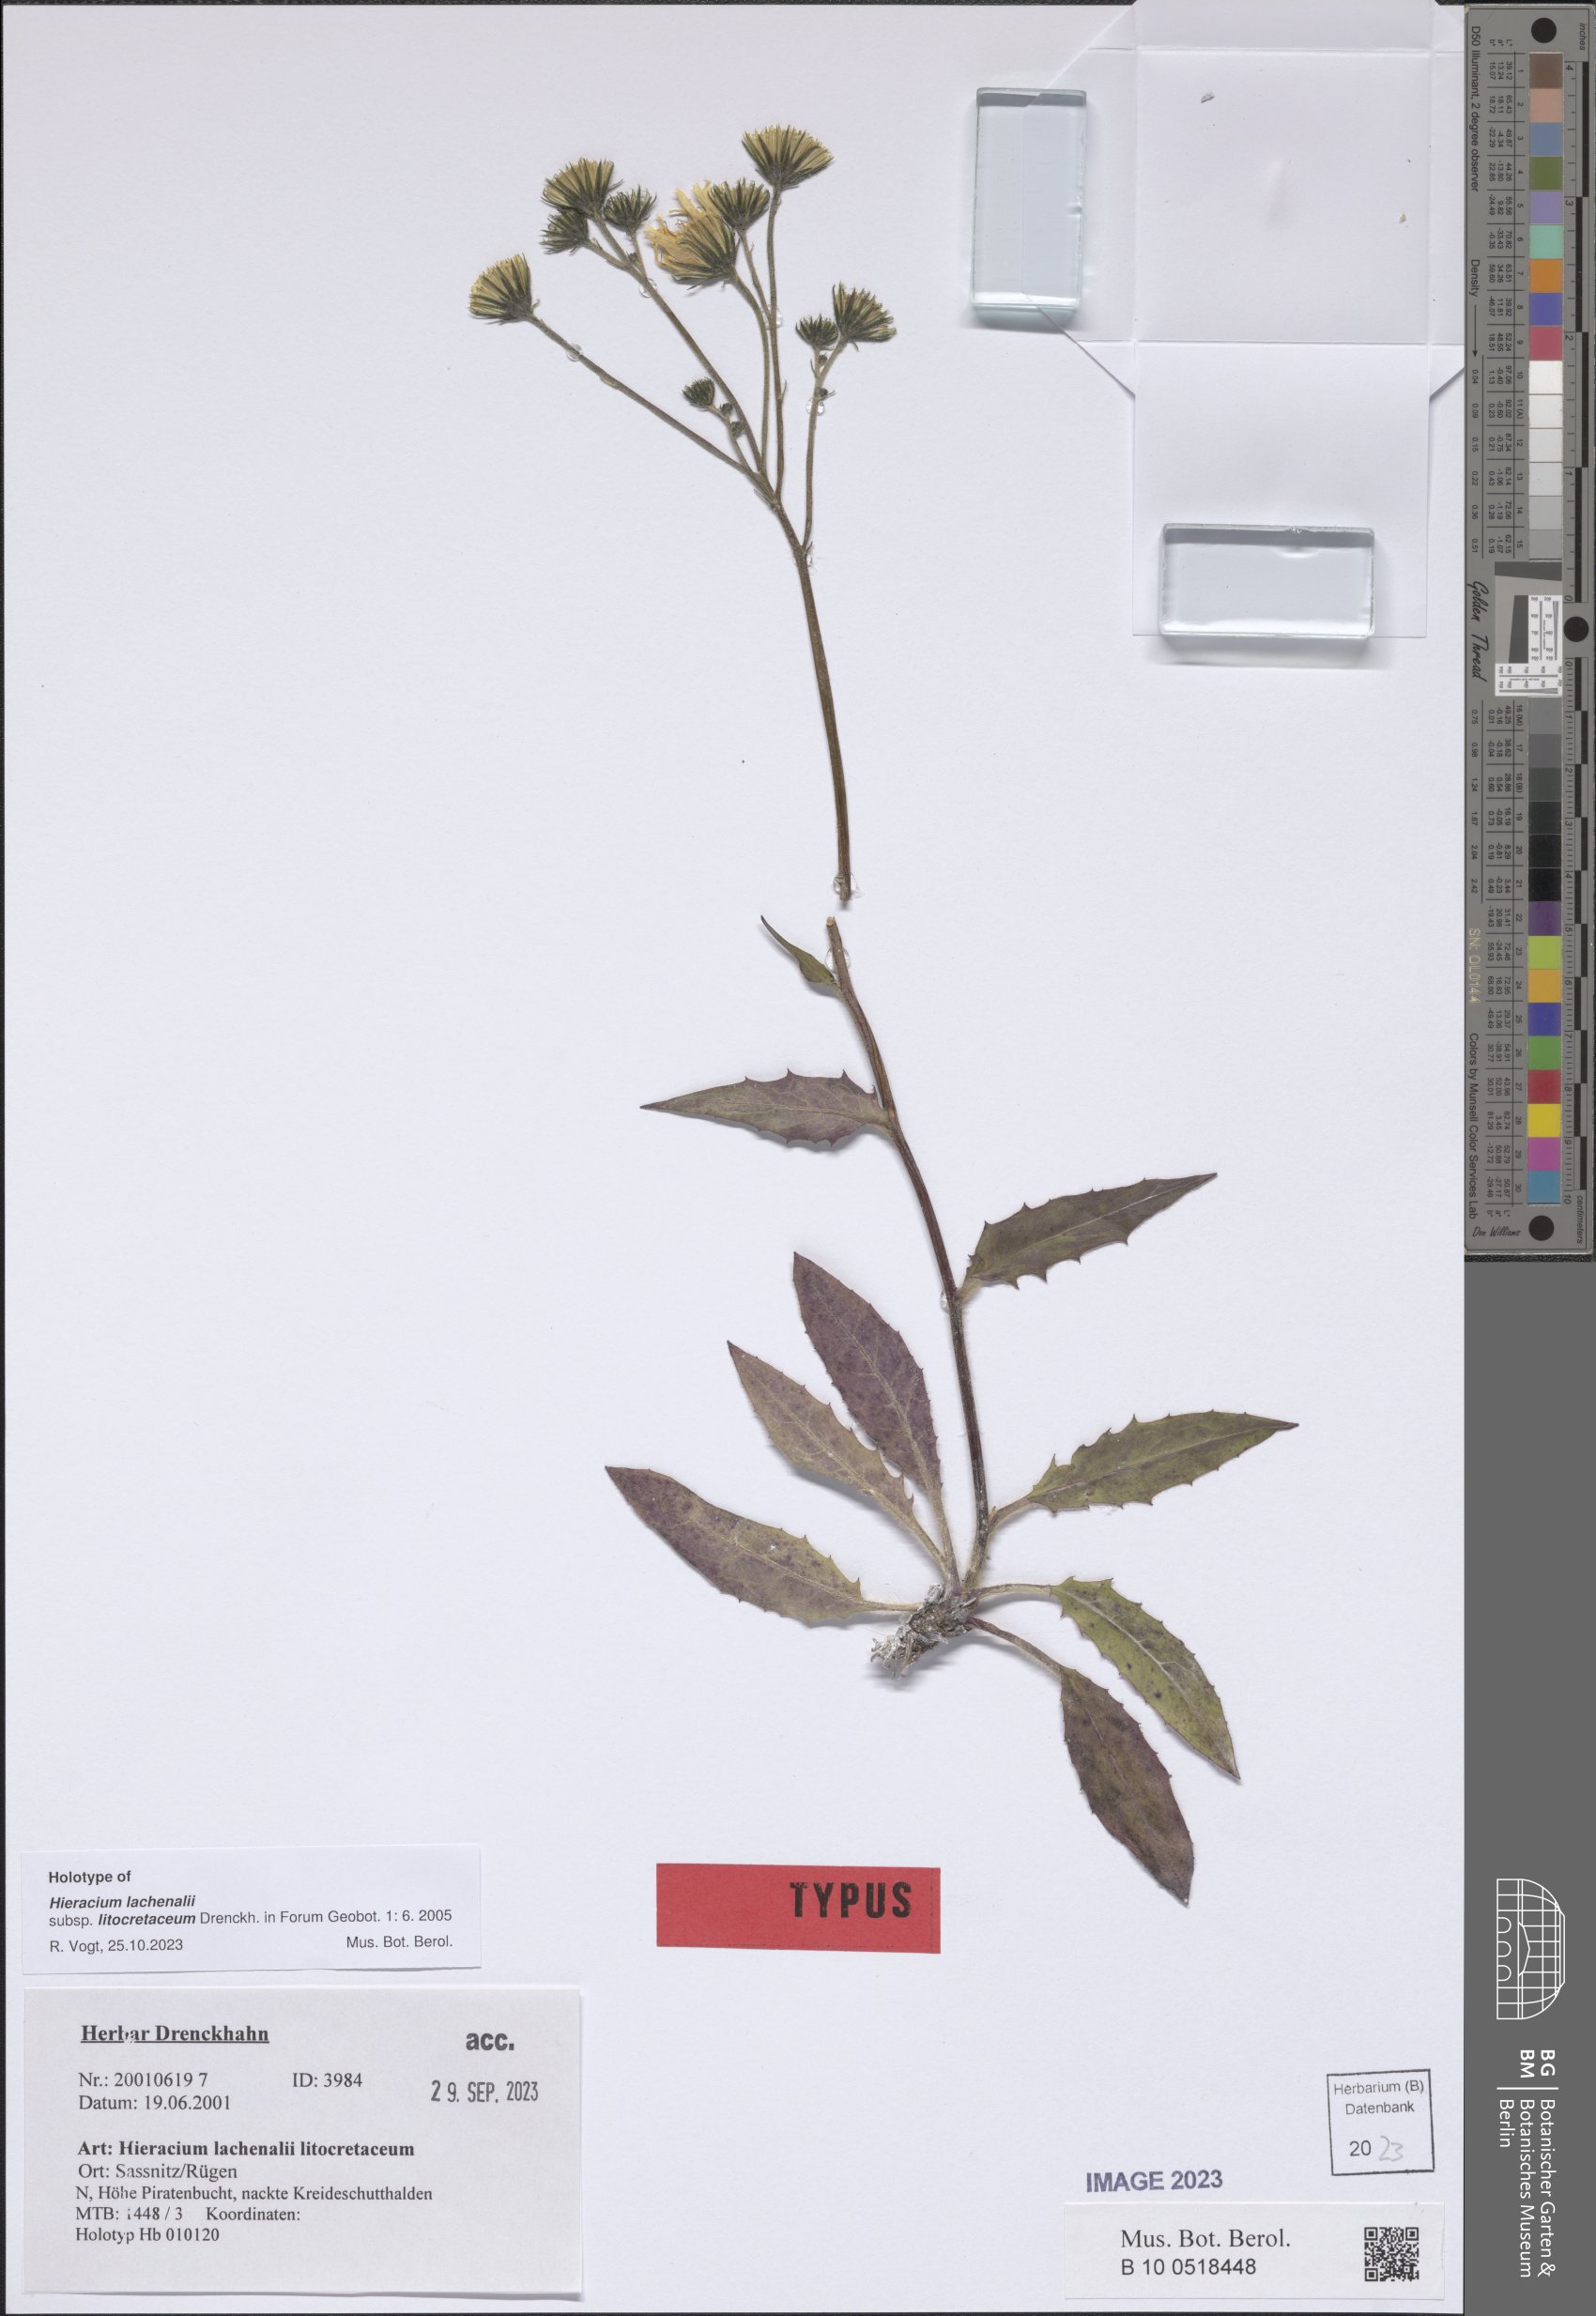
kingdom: Plantae
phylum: Tracheophyta
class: Magnoliopsida
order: Asterales
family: Asteraceae
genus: Hieracium
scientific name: Hieracium lachenalii
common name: Common hawkweed
